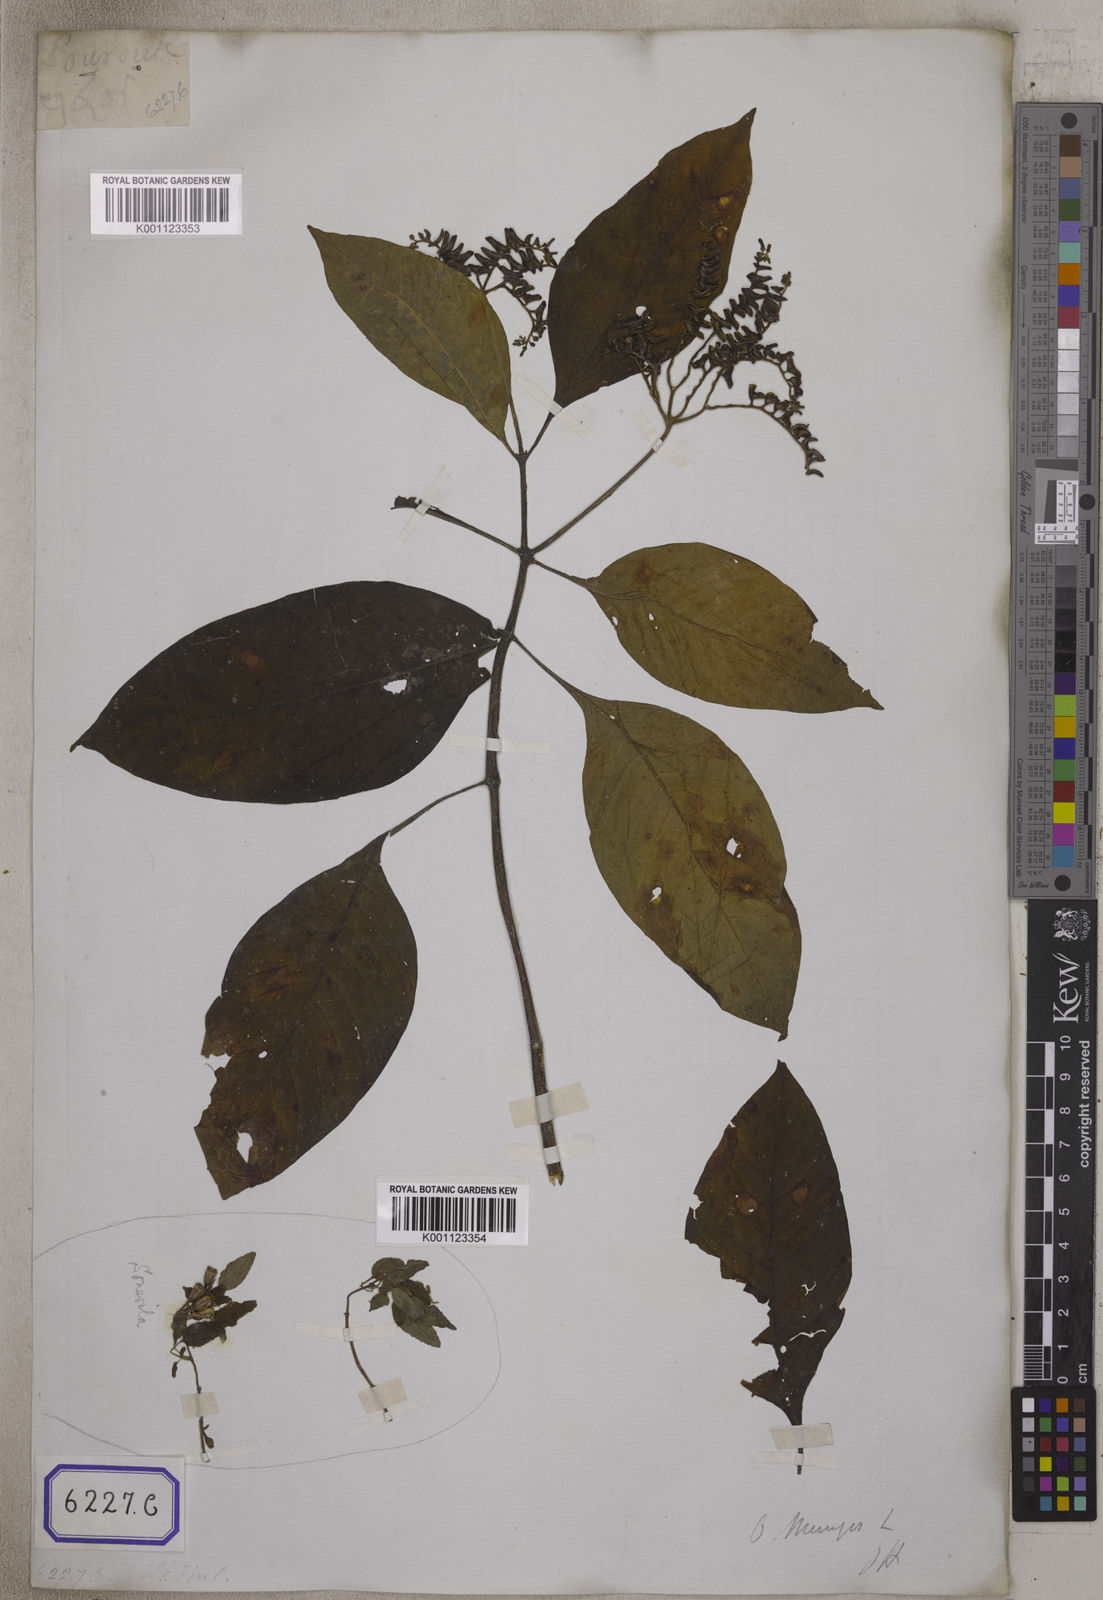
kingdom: Plantae
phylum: Tracheophyta
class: Magnoliopsida
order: Gentianales
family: Rubiaceae
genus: Ophiorrhiza
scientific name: Ophiorrhiza mungos
